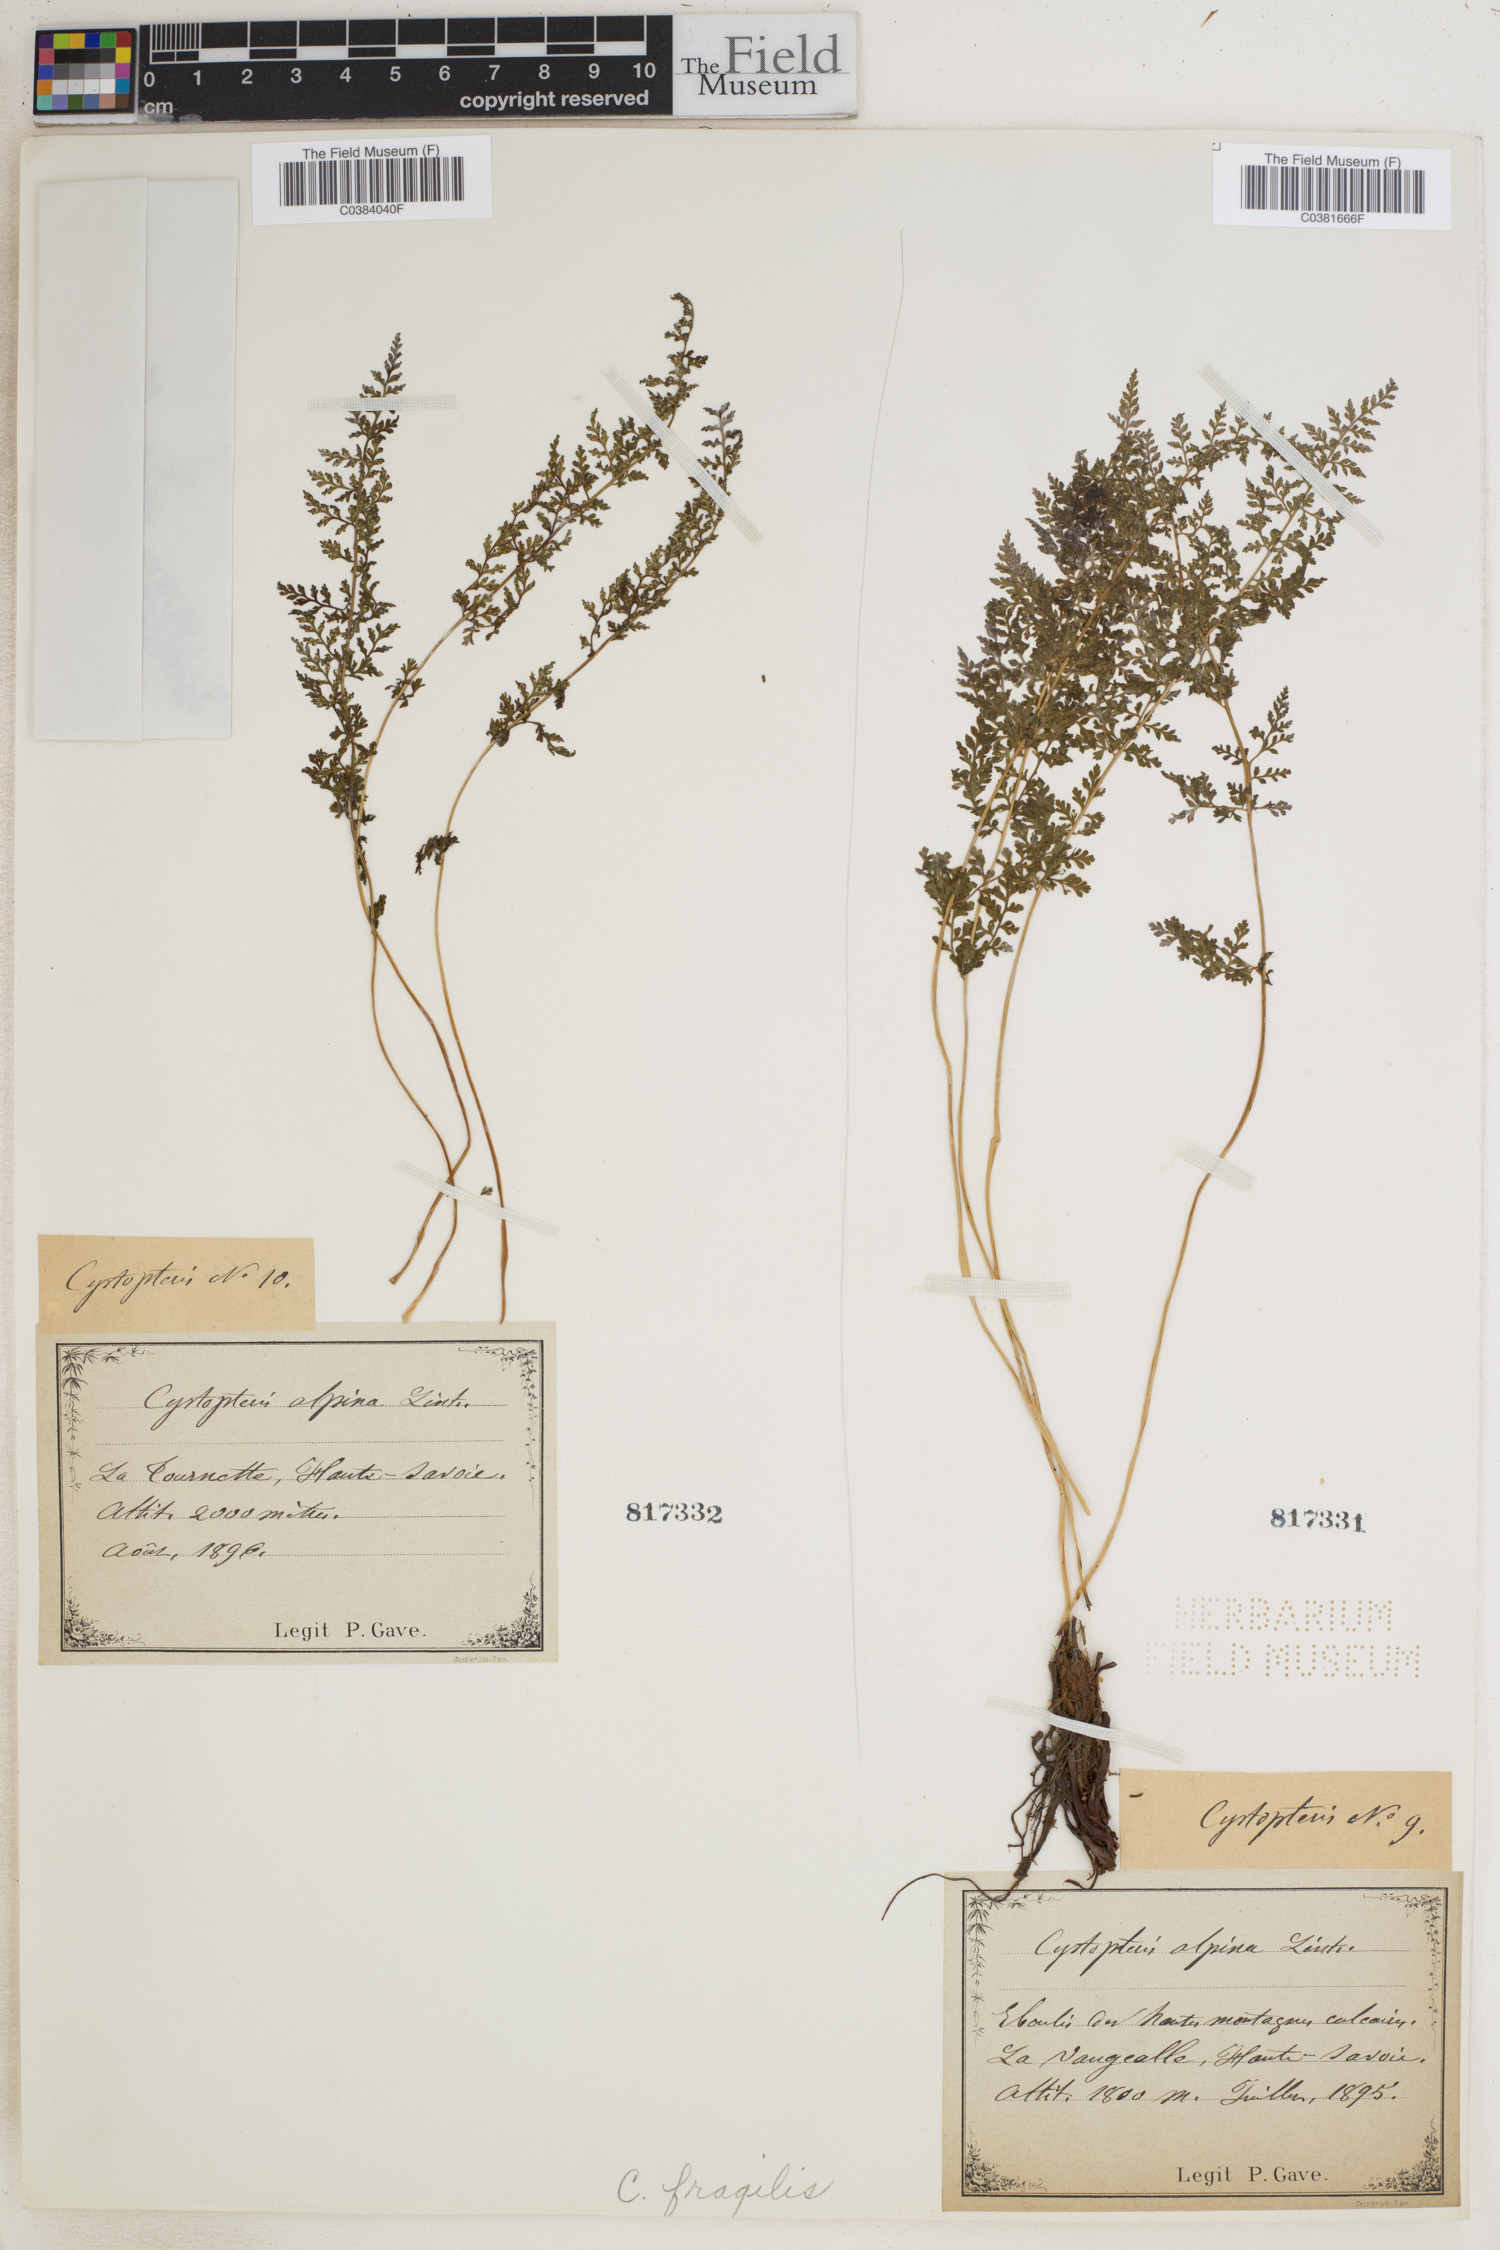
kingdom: Plantae
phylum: Tracheophyta
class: Polypodiopsida
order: Polypodiales
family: Cystopteridaceae
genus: Cystopteris
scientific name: Cystopteris fragilis
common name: Brittle bladder fern
